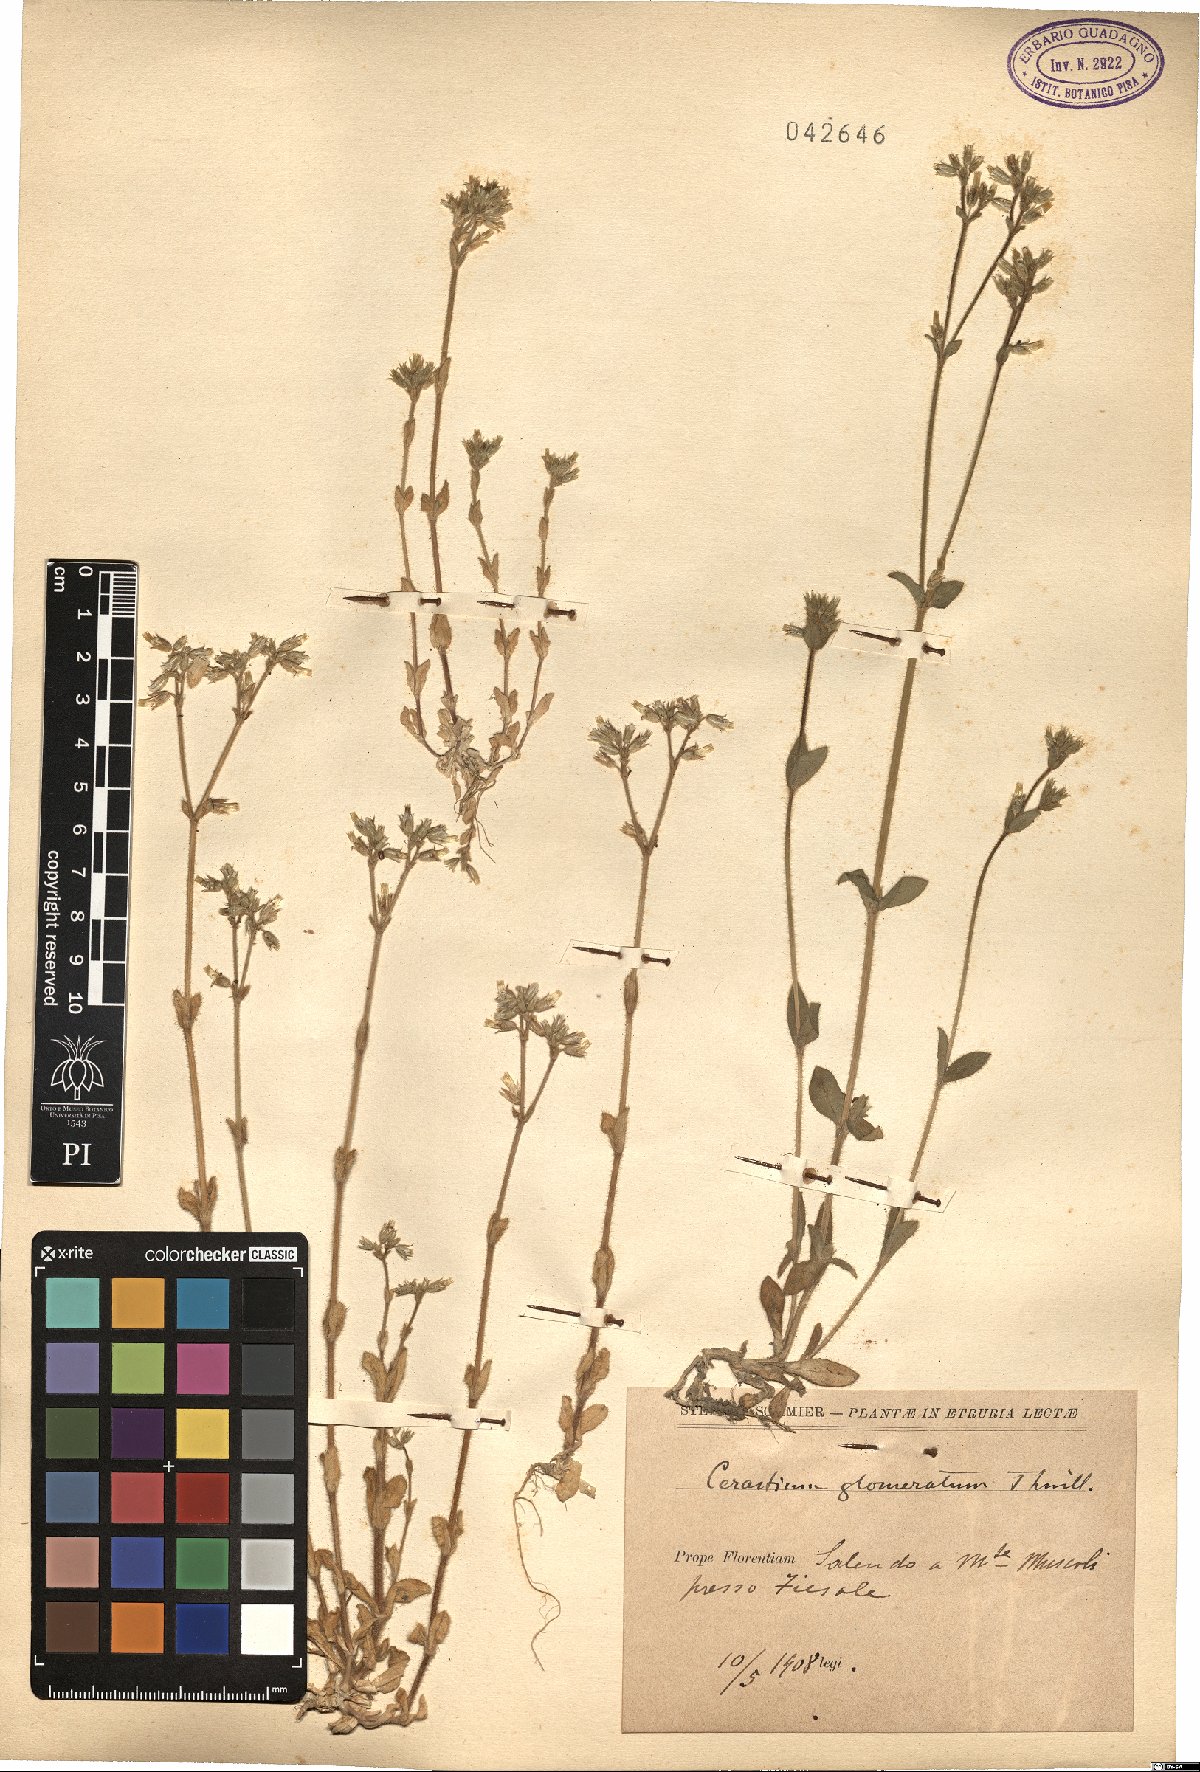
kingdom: Plantae
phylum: Tracheophyta
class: Magnoliopsida
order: Caryophyllales
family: Caryophyllaceae
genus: Cerastium
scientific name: Cerastium glomeratum
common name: Sticky chickweed
